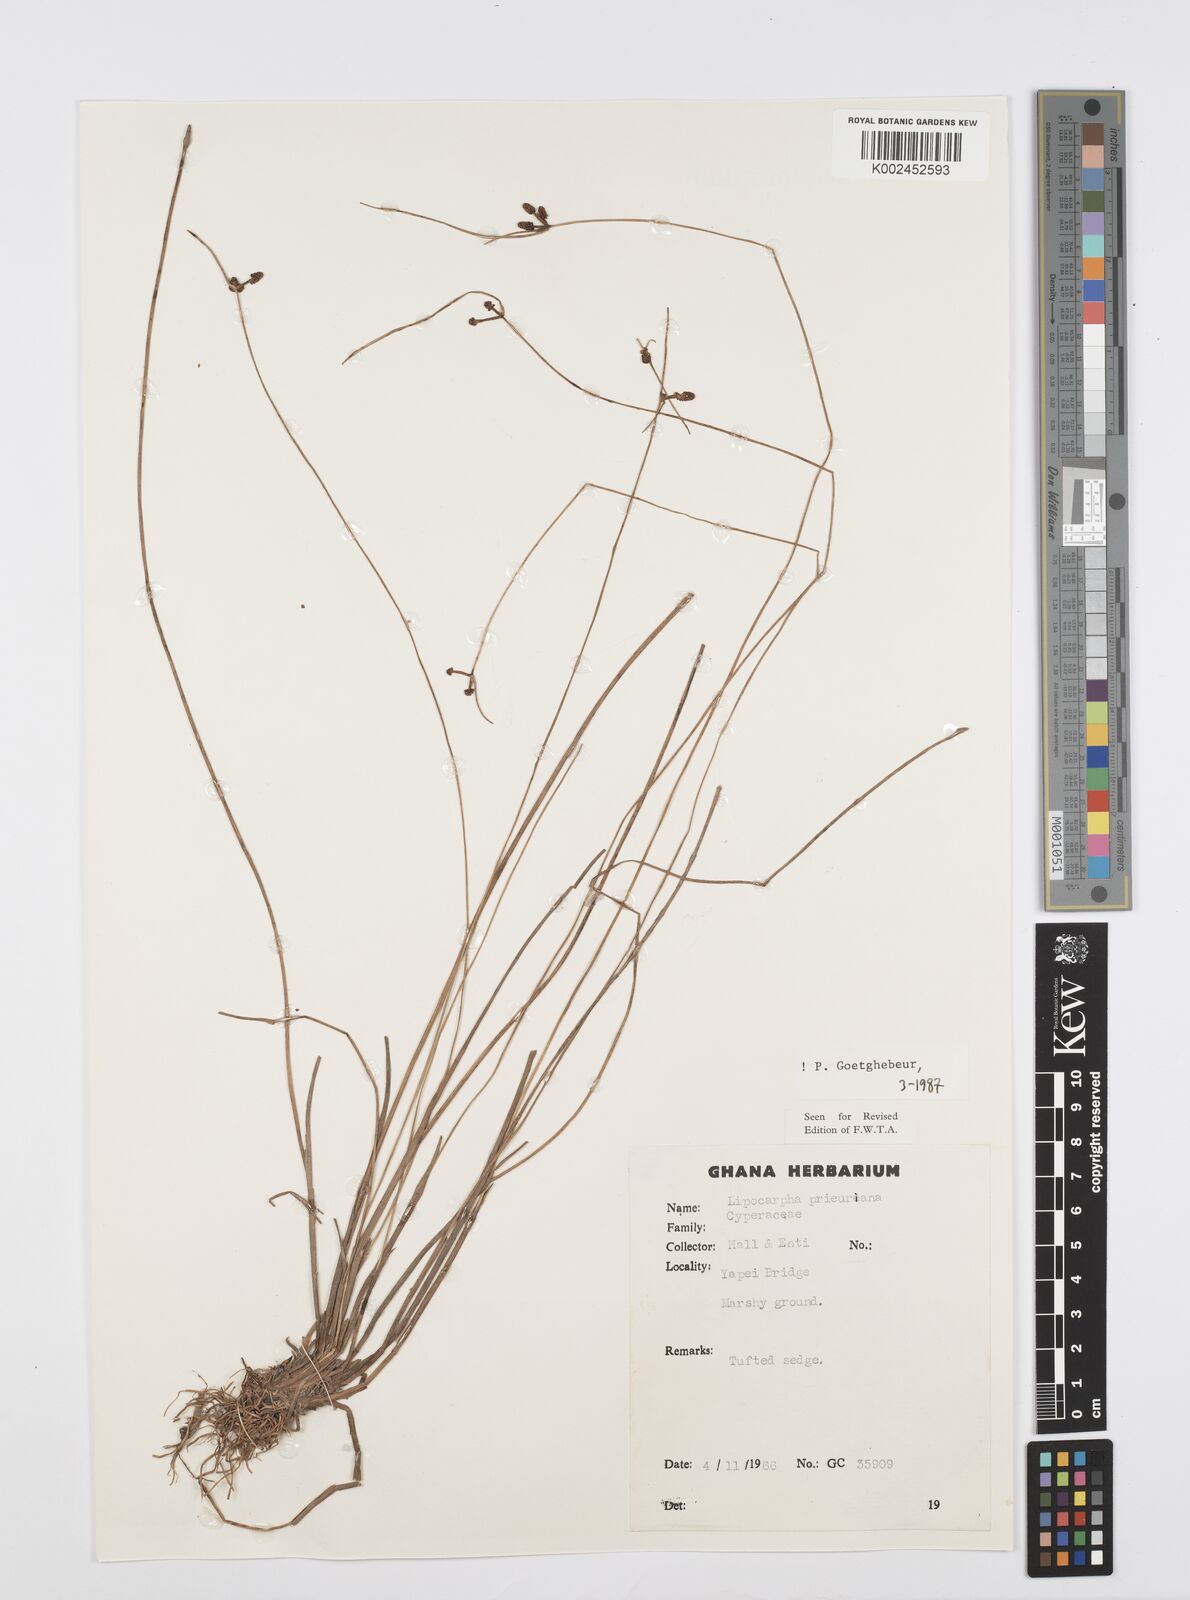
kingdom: Plantae
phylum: Tracheophyta
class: Liliopsida
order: Poales
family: Cyperaceae
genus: Cyperus
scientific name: Cyperus prieurianus
